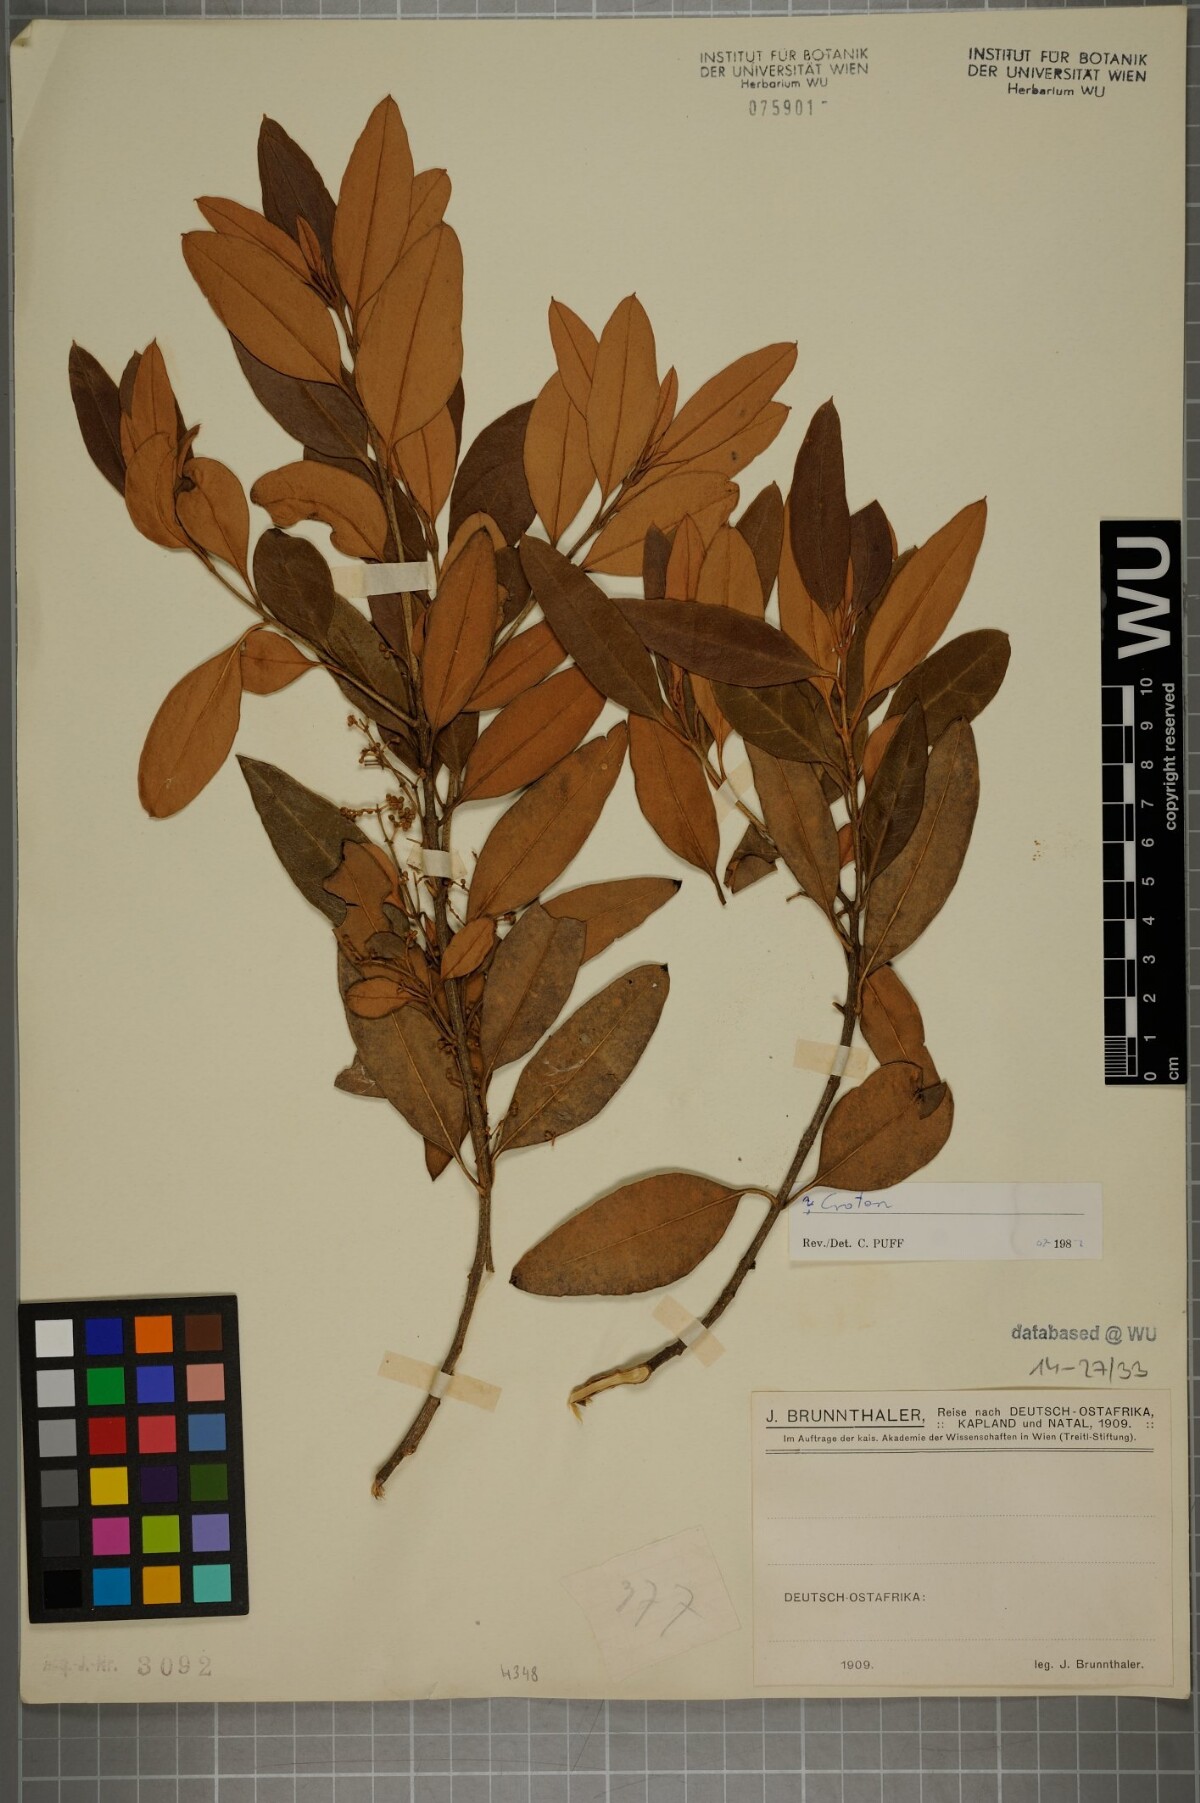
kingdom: Plantae
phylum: Tracheophyta
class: Magnoliopsida
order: Malpighiales
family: Euphorbiaceae
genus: Croton
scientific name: Croton
